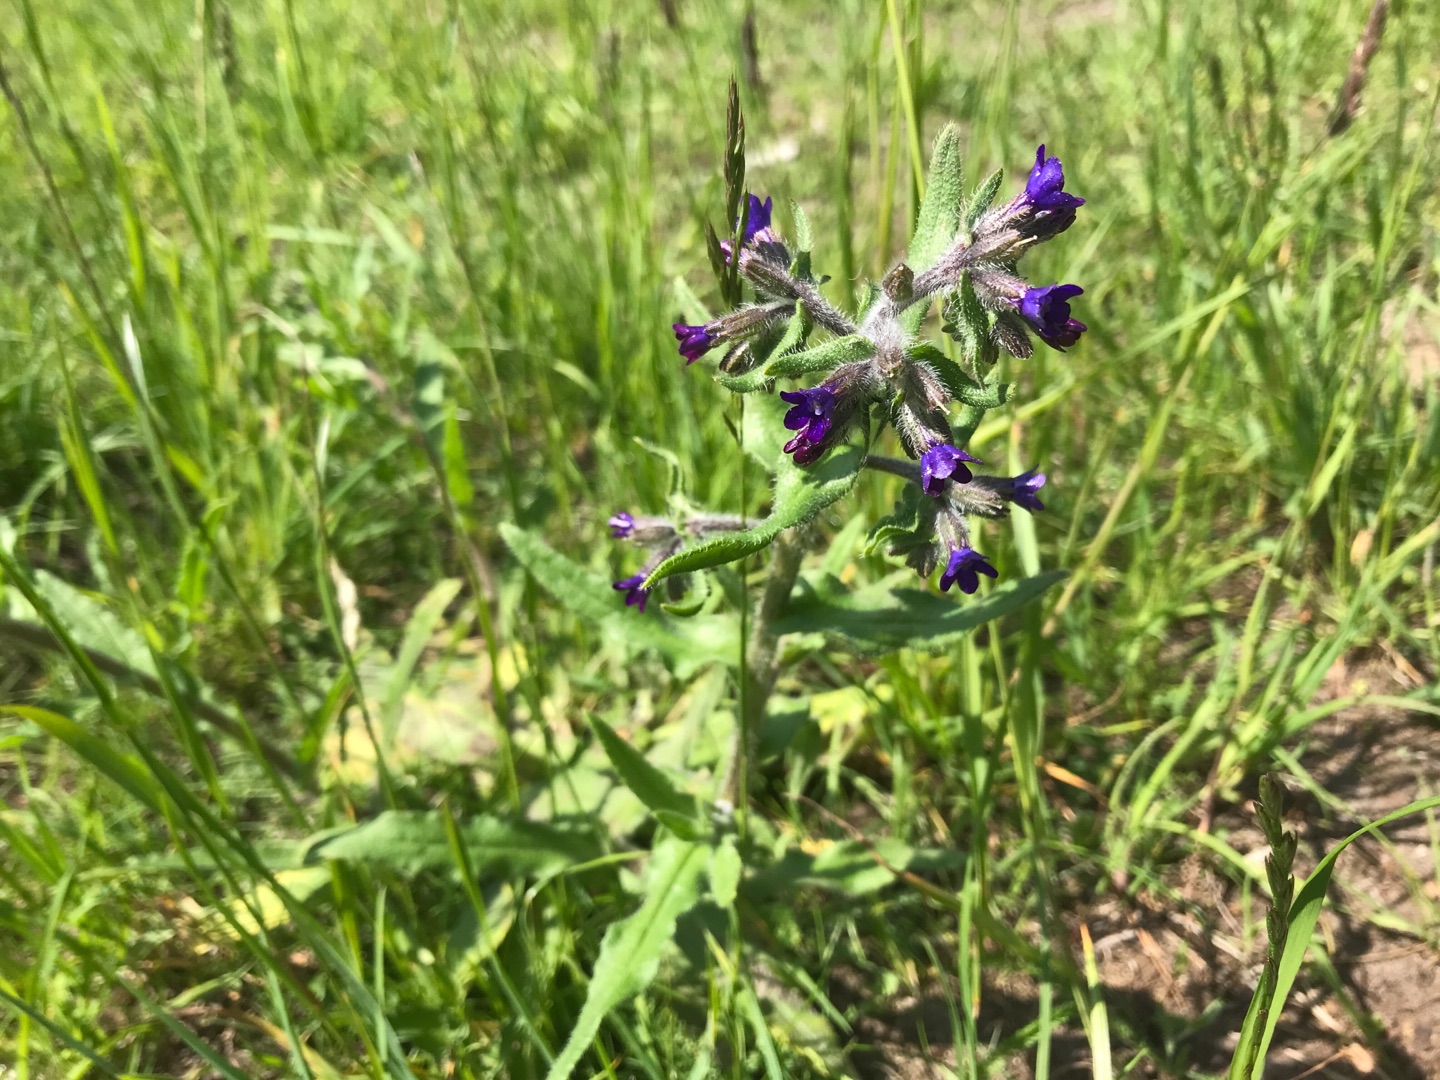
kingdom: Plantae
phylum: Tracheophyta
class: Magnoliopsida
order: Boraginales
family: Boraginaceae
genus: Anchusa
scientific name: Anchusa officinalis
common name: Læge-oksetunge
